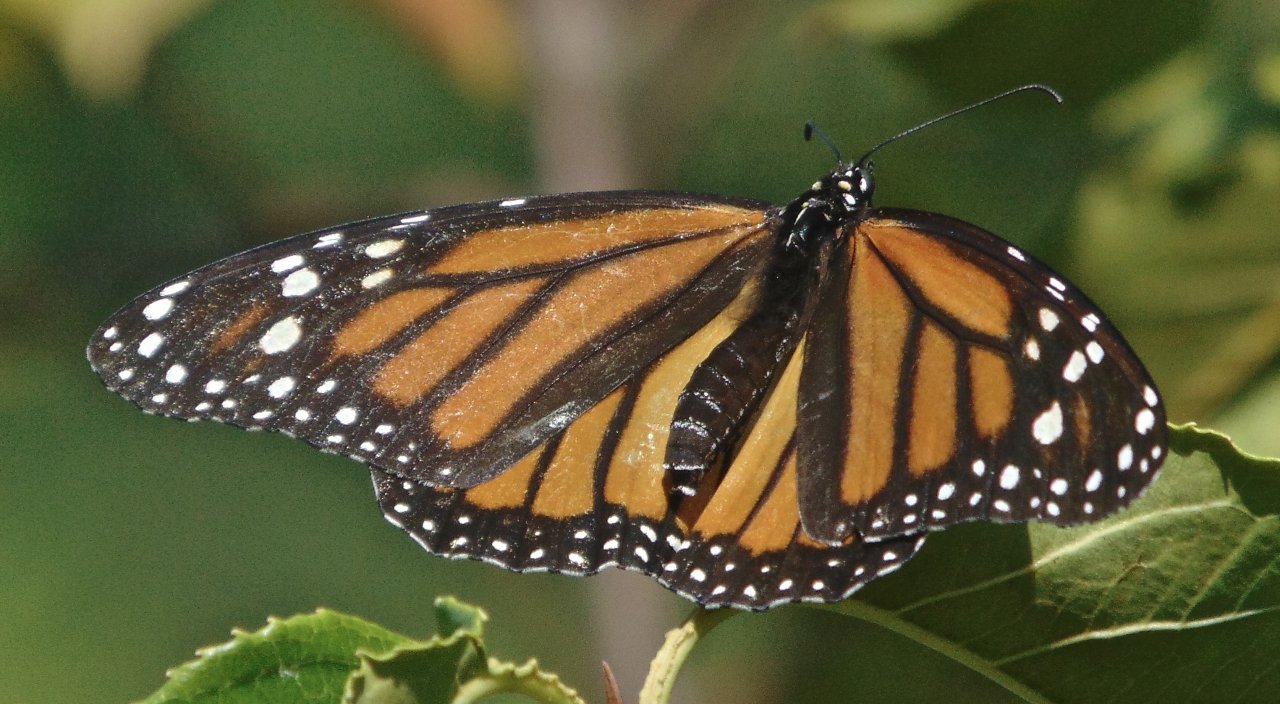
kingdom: Animalia
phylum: Arthropoda
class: Insecta
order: Lepidoptera
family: Nymphalidae
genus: Danaus
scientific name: Danaus plexippus
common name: Monarch
